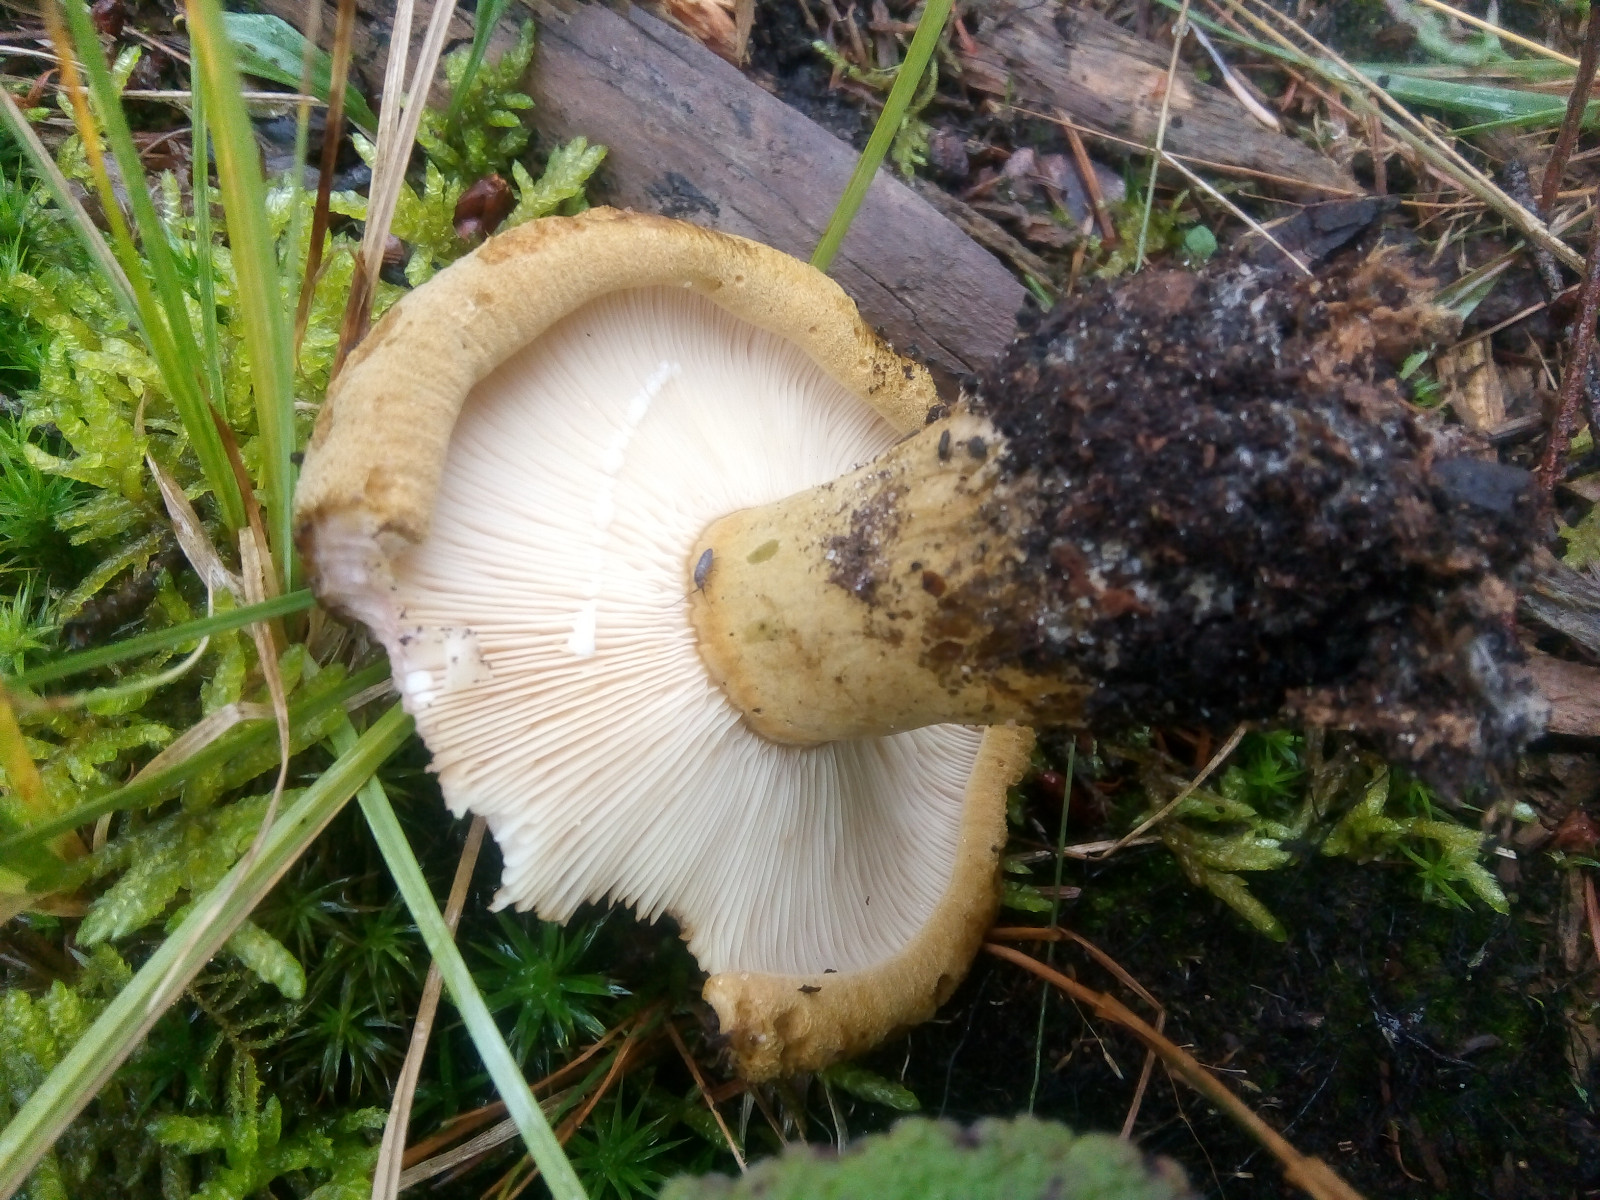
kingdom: Fungi
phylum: Basidiomycota
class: Agaricomycetes
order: Russulales
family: Russulaceae
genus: Lactarius
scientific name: Lactarius necator
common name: manddraber-mælkehat
